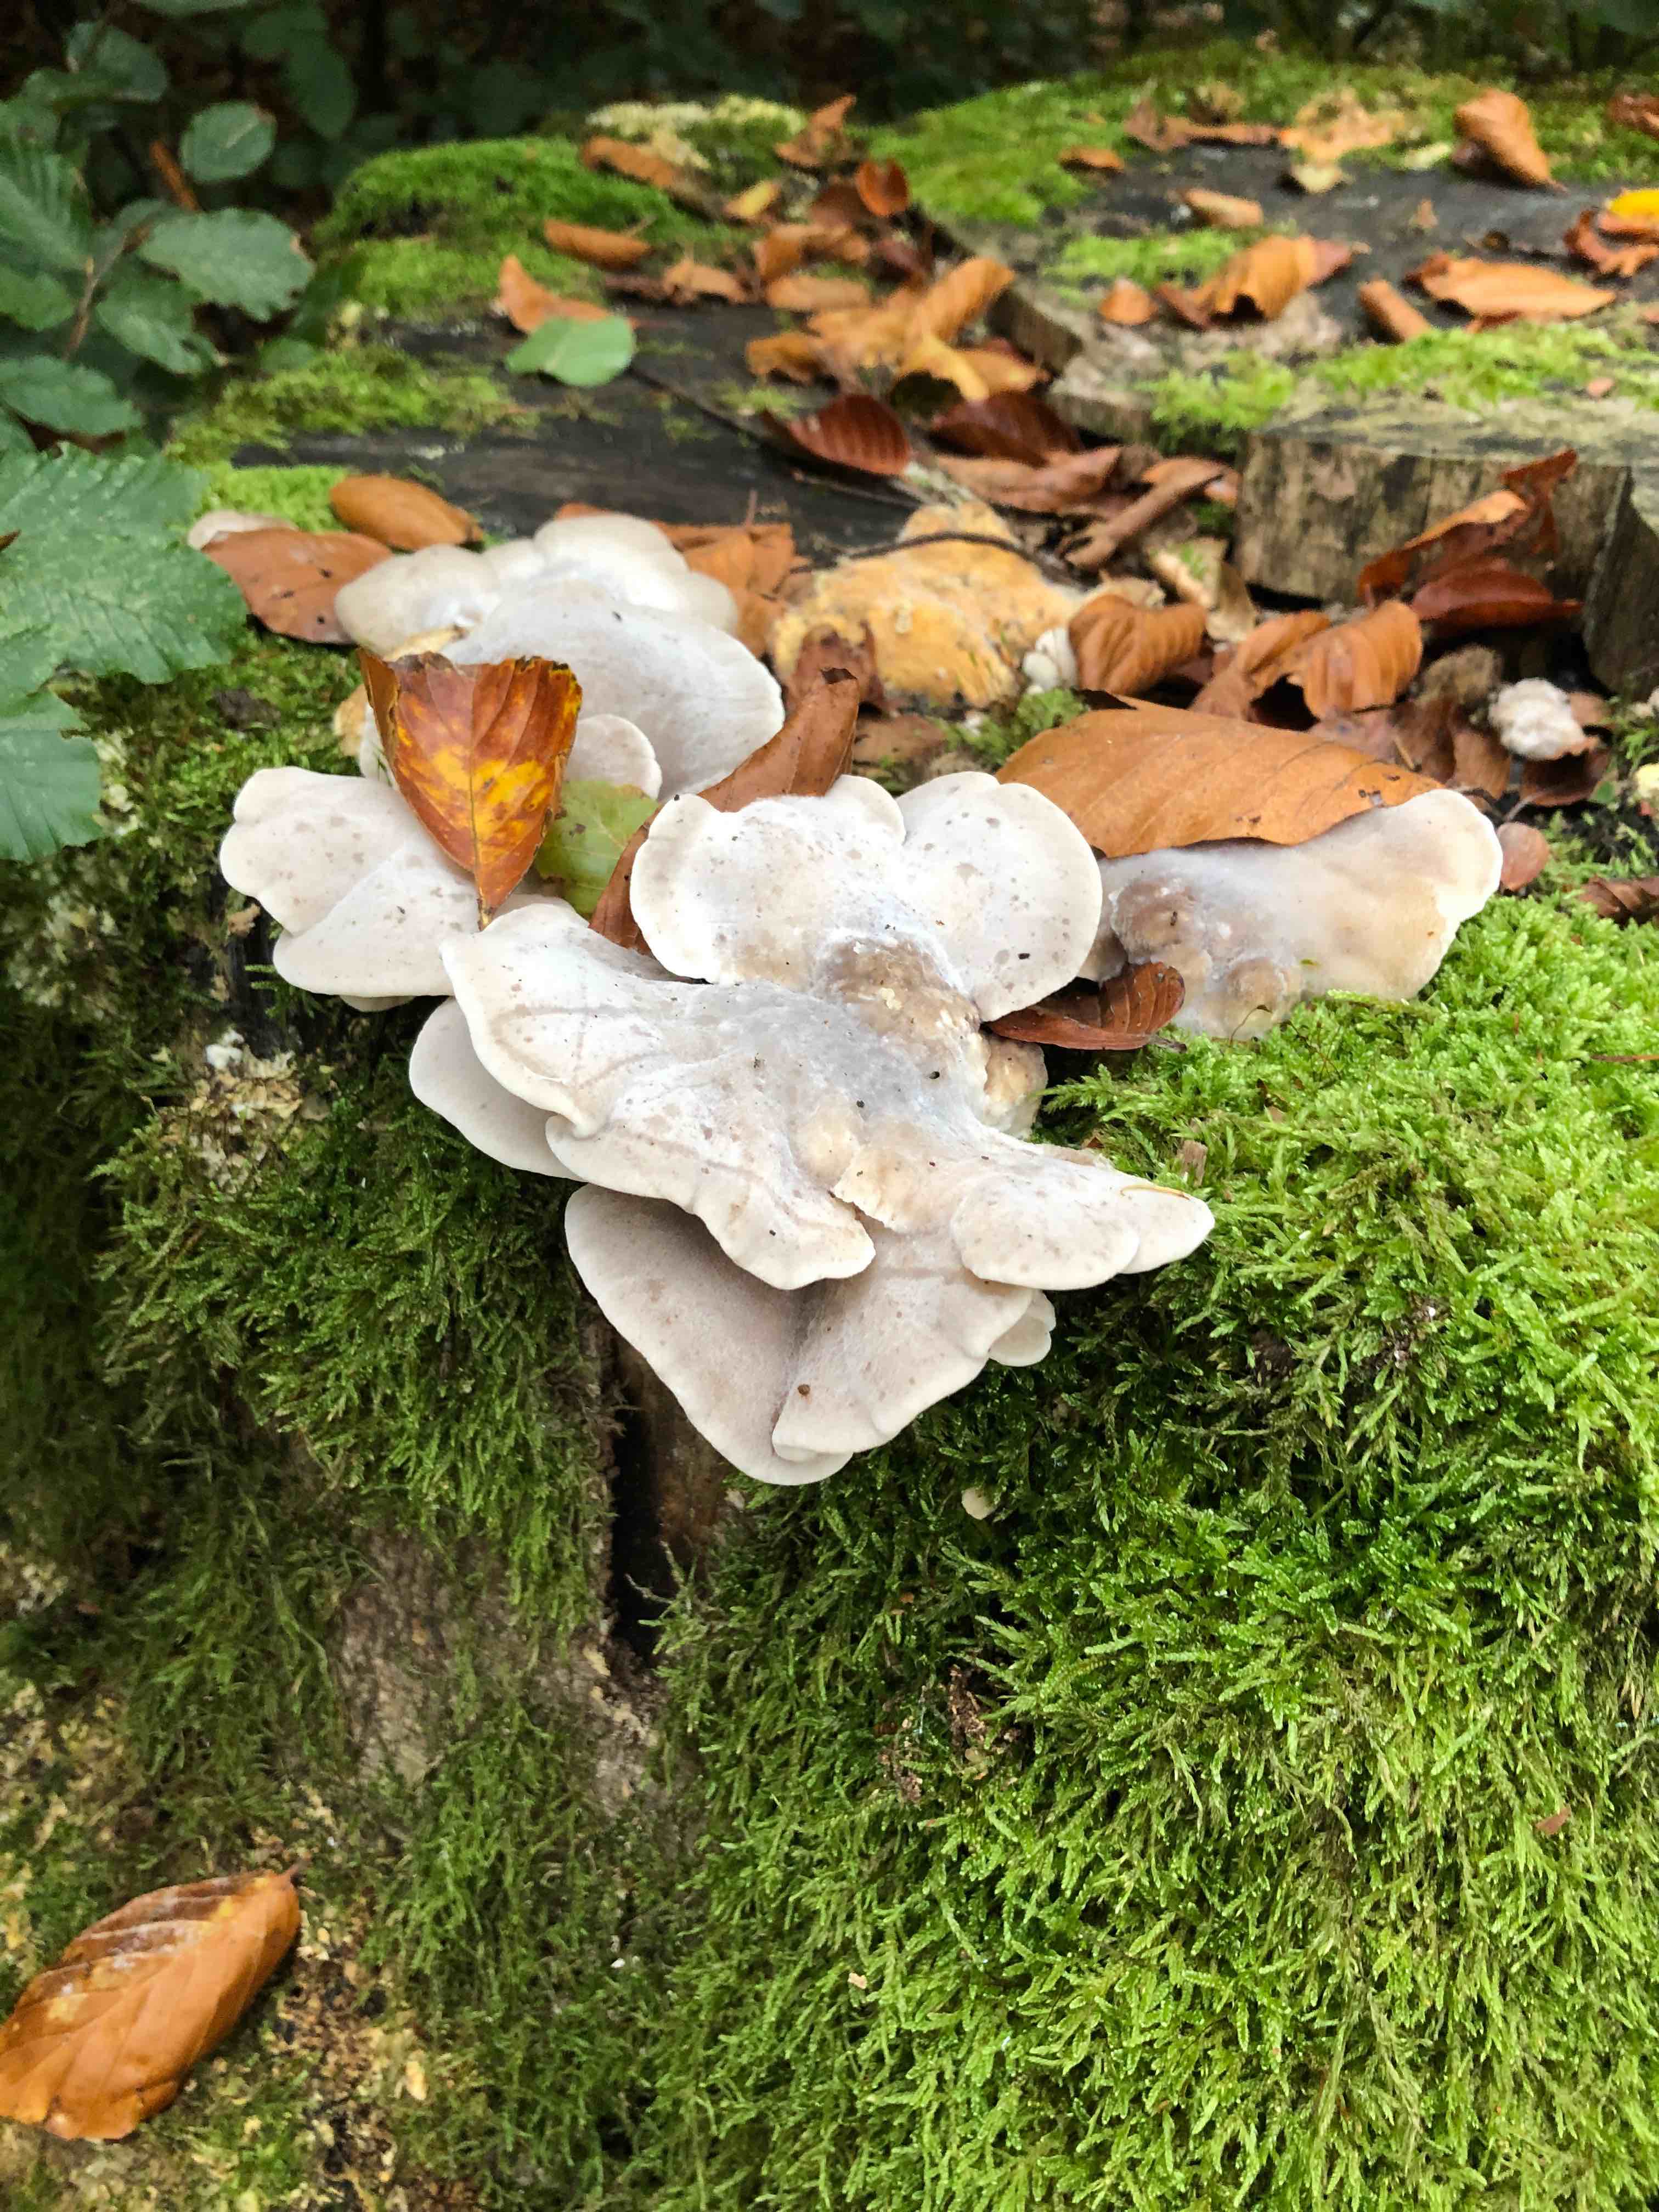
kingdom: Fungi
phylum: Basidiomycota
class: Agaricomycetes
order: Polyporales
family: Incrustoporiaceae
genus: Tyromyces
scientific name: Tyromyces chioneus
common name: stor blødporesvamp
